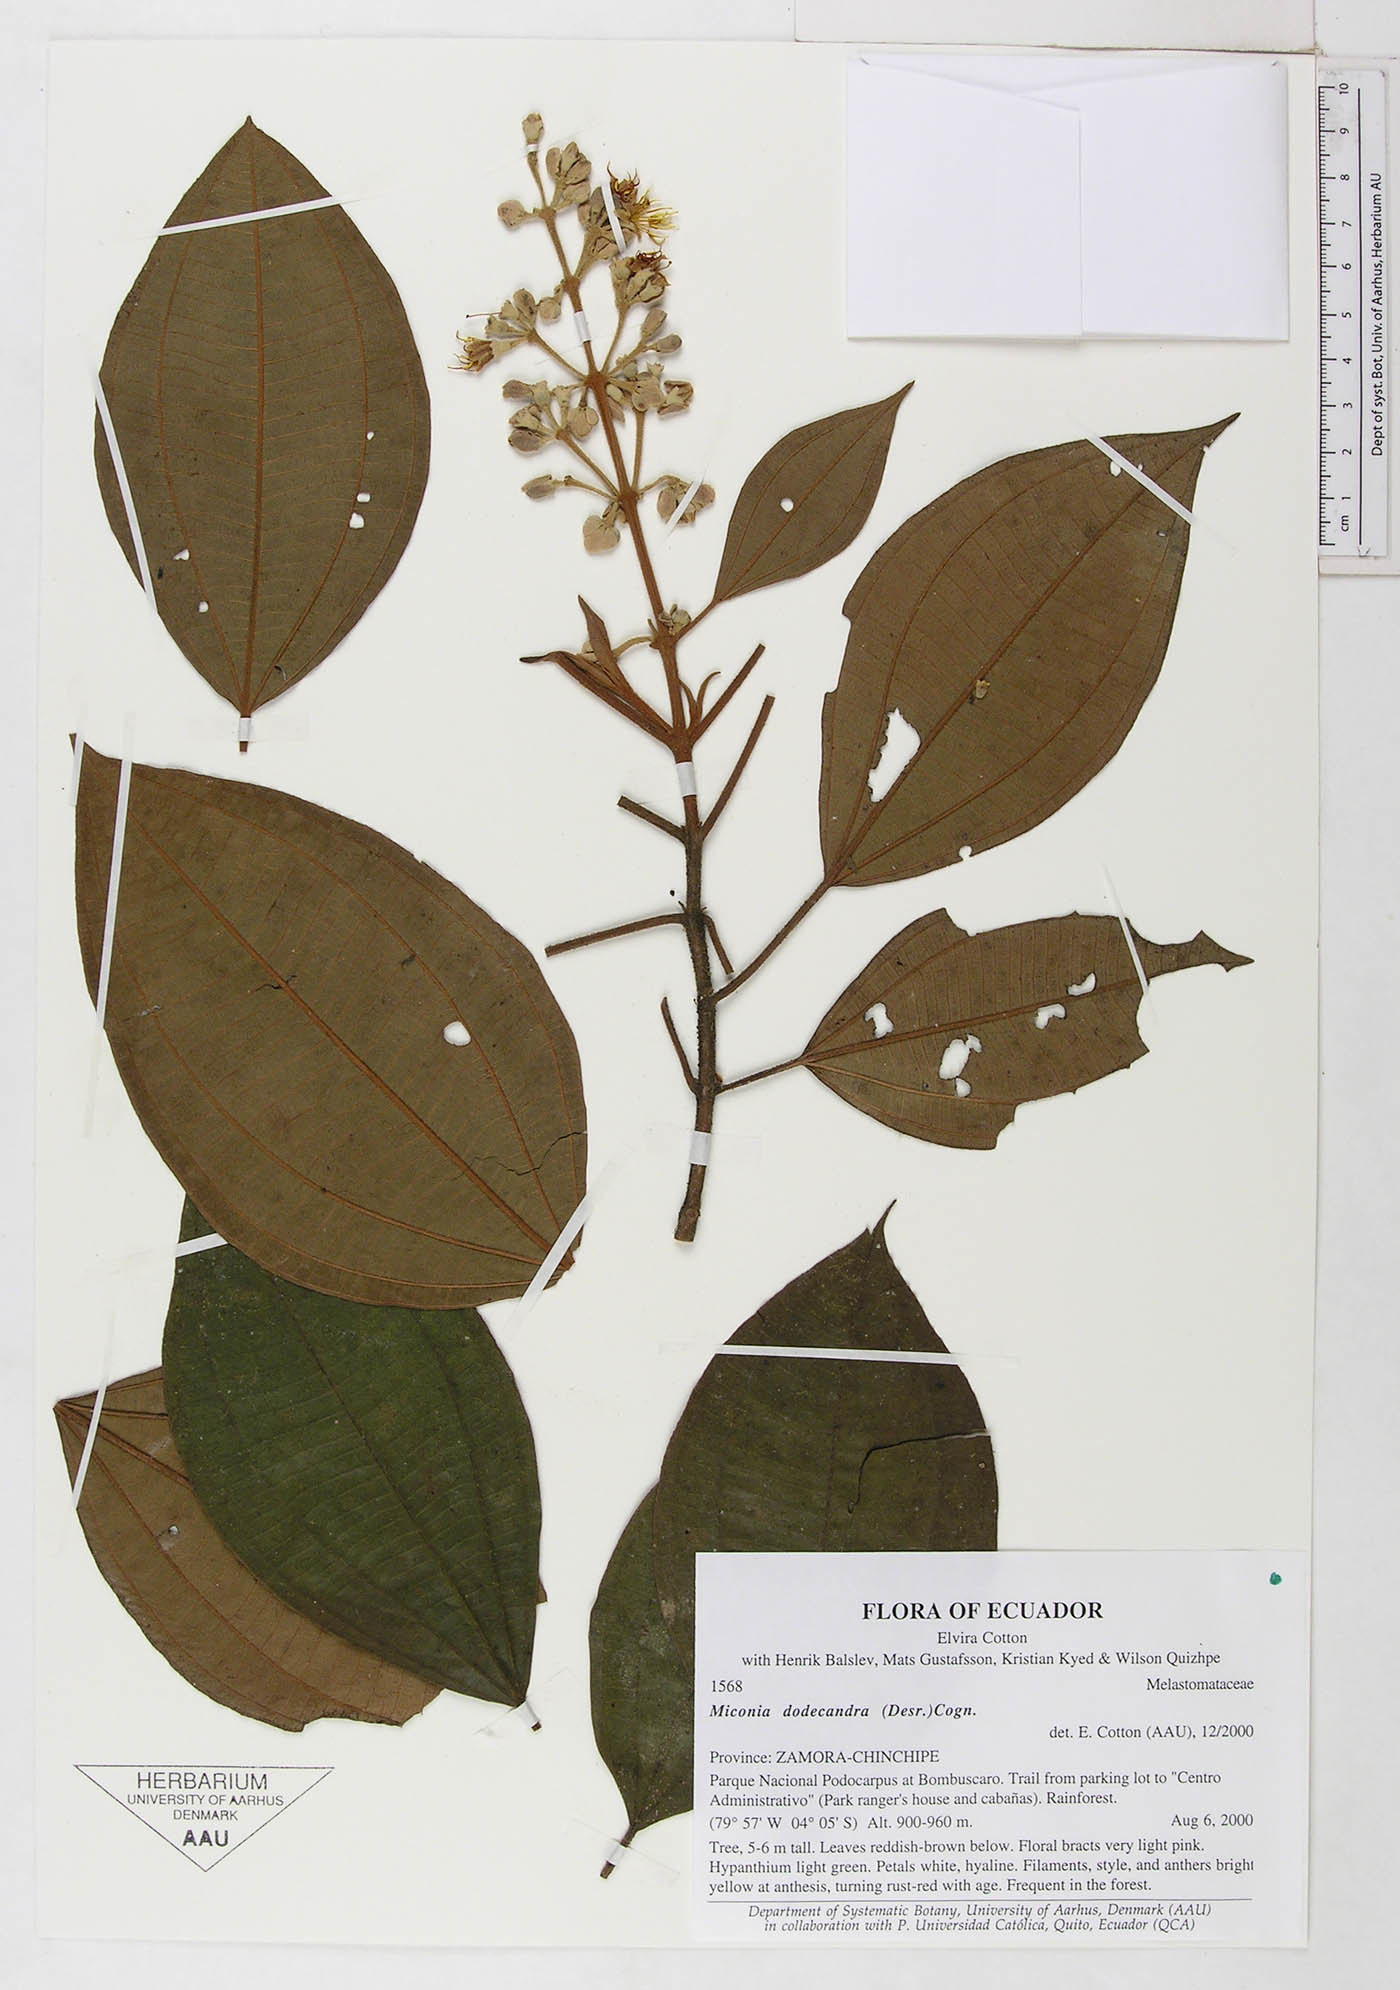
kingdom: Plantae
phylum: Tracheophyta
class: Magnoliopsida
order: Myrtales
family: Melastomataceae
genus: Miconia
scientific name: Miconia dodecandra
